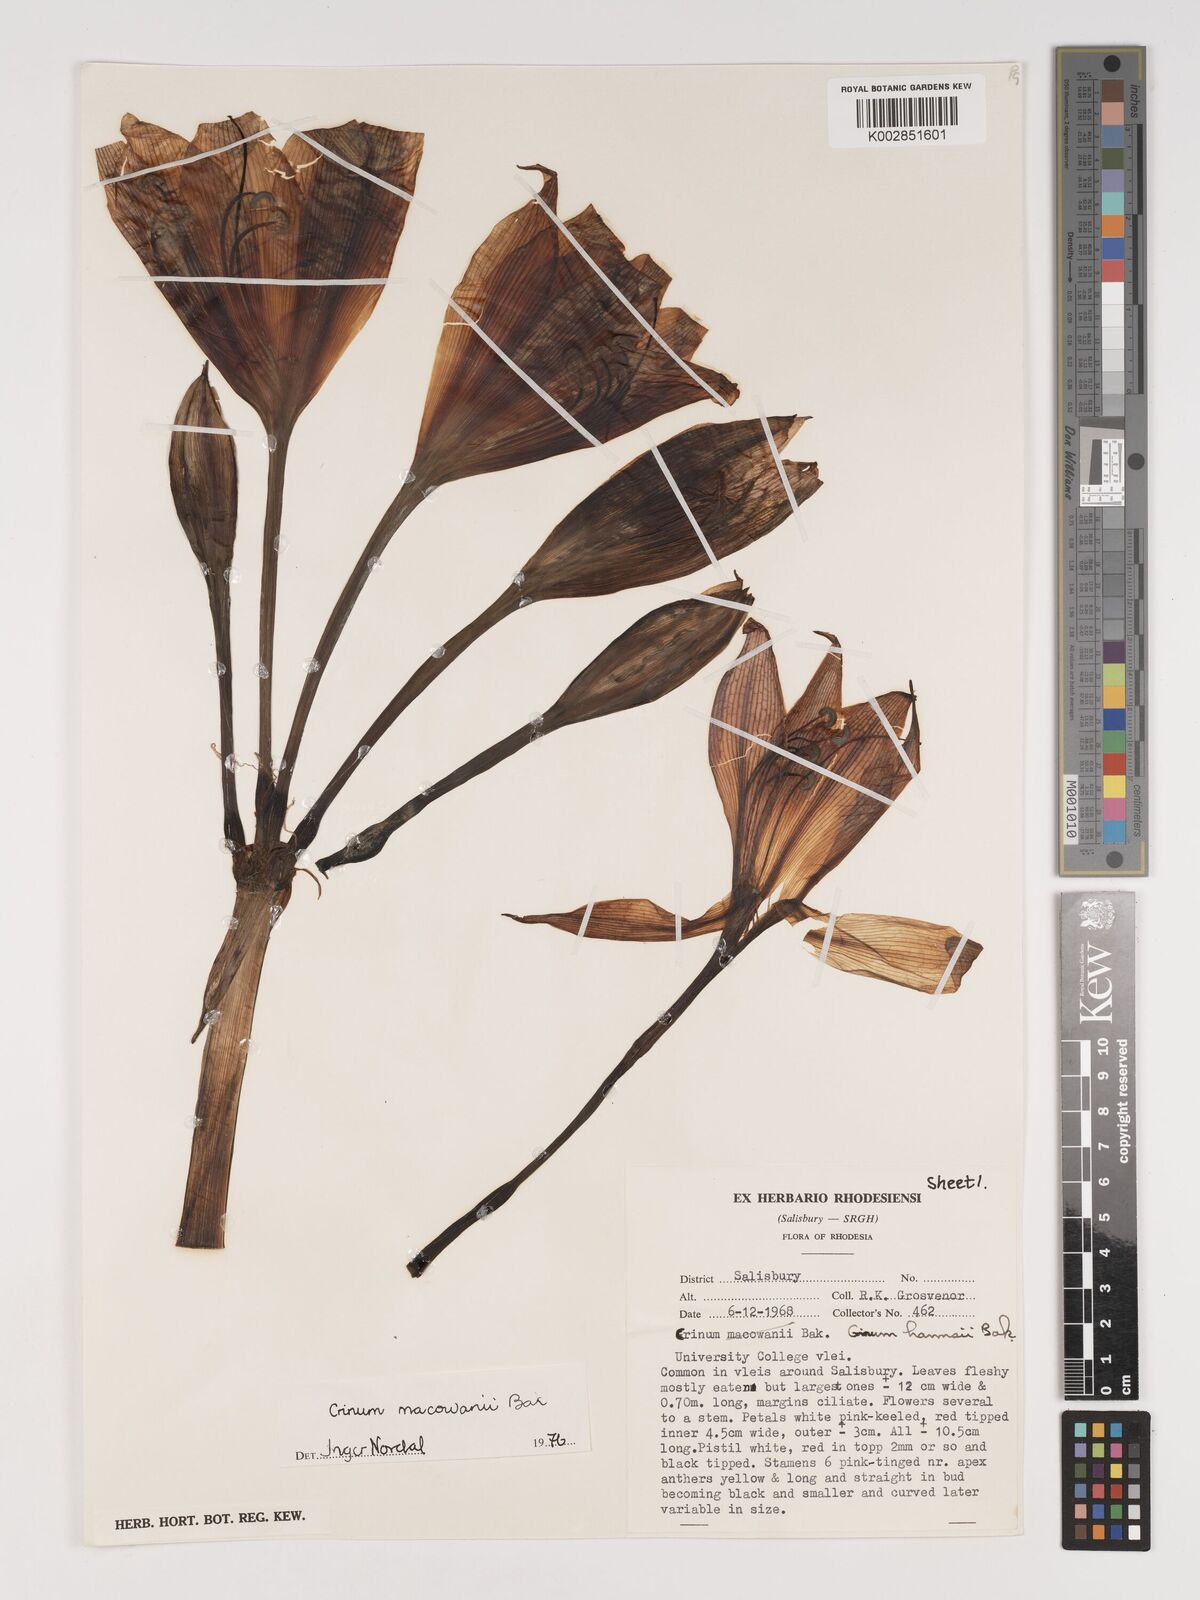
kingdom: Plantae
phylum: Tracheophyta
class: Liliopsida
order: Asparagales
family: Amaryllidaceae
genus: Crinum
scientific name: Crinum macowanii
